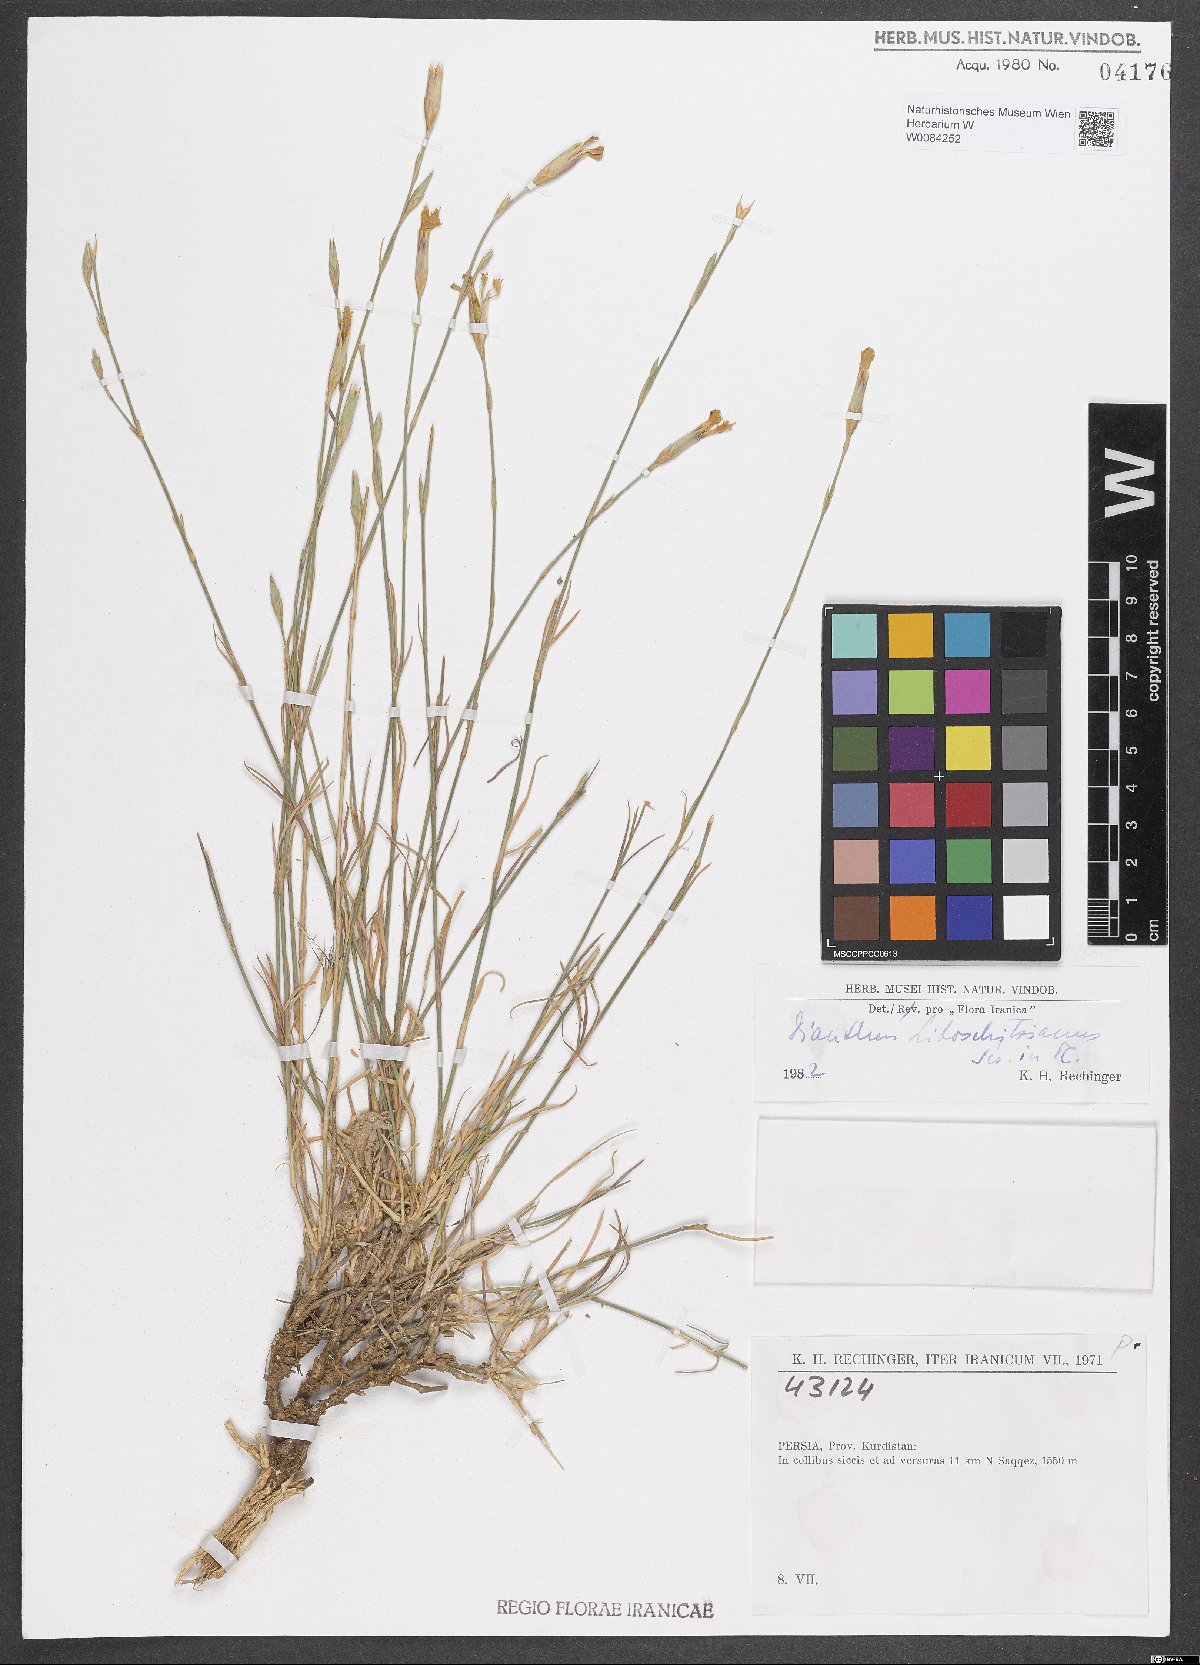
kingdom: Plantae
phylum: Tracheophyta
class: Magnoliopsida
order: Caryophyllales
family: Caryophyllaceae
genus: Dianthus
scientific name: Dianthus cretaceus
